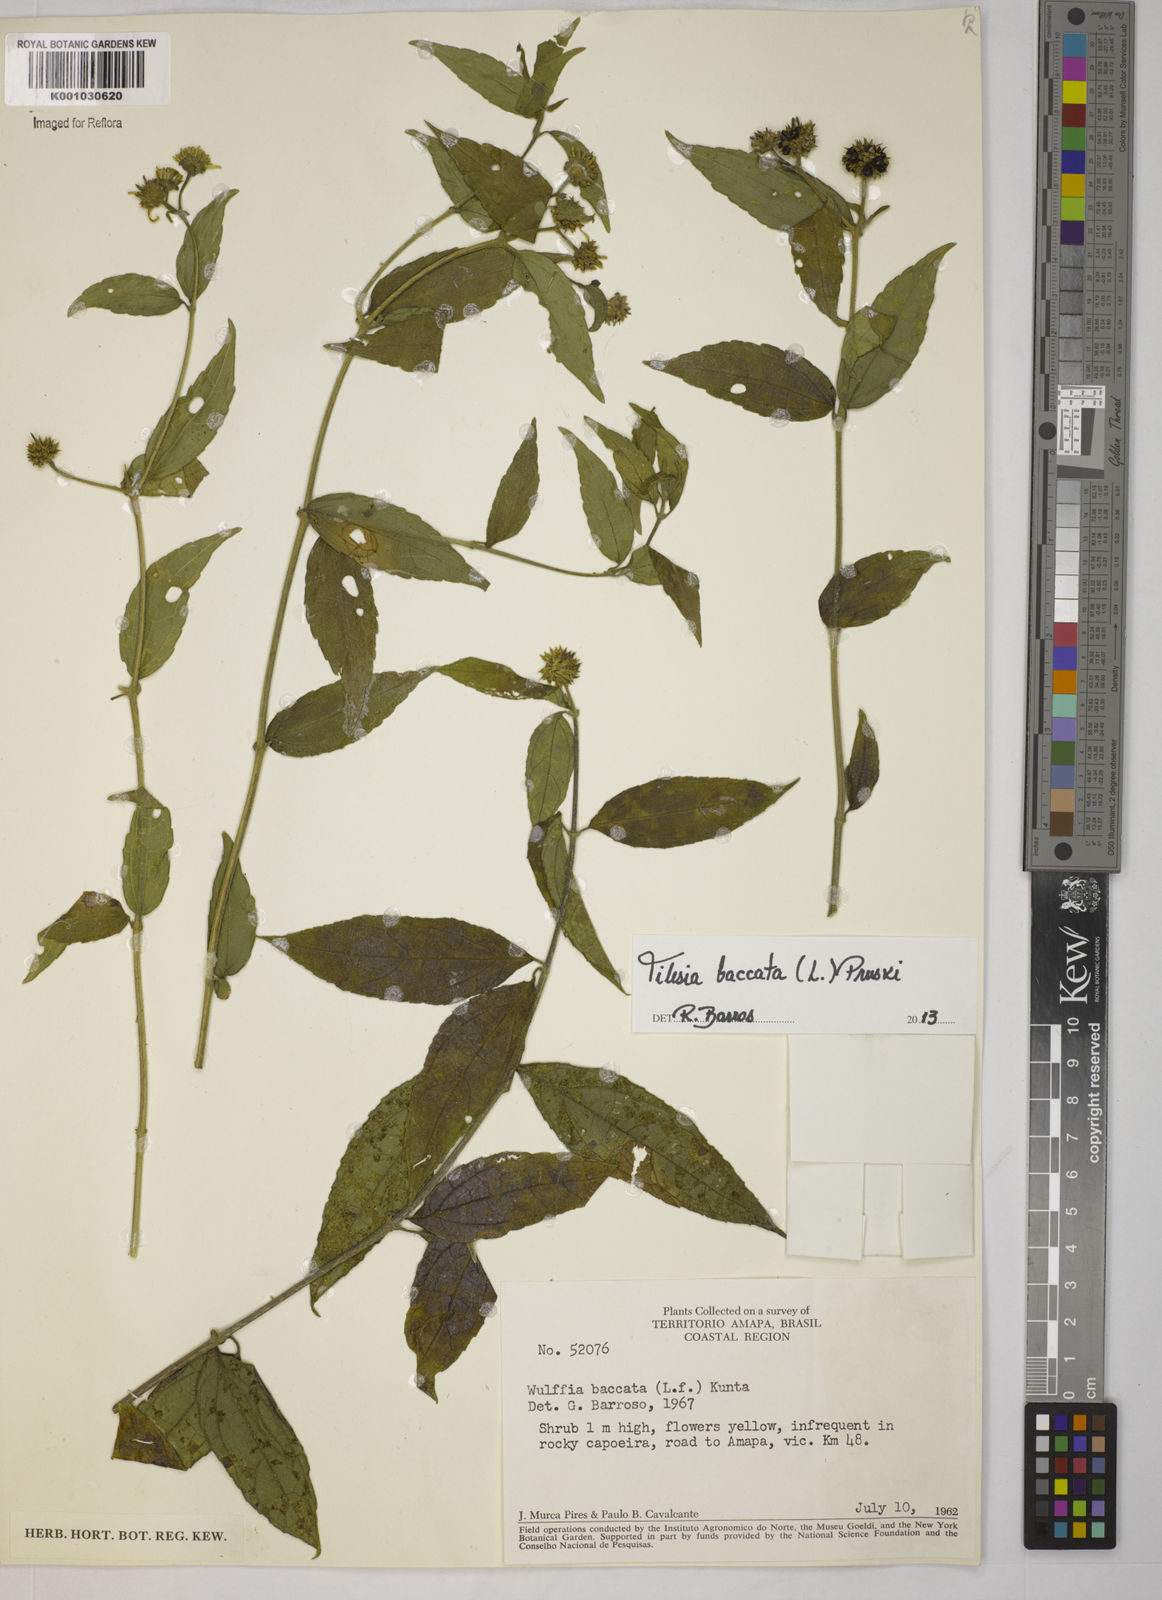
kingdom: Plantae
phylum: Tracheophyta
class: Magnoliopsida
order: Asterales
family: Asteraceae
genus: Tilesia
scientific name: Tilesia baccata
